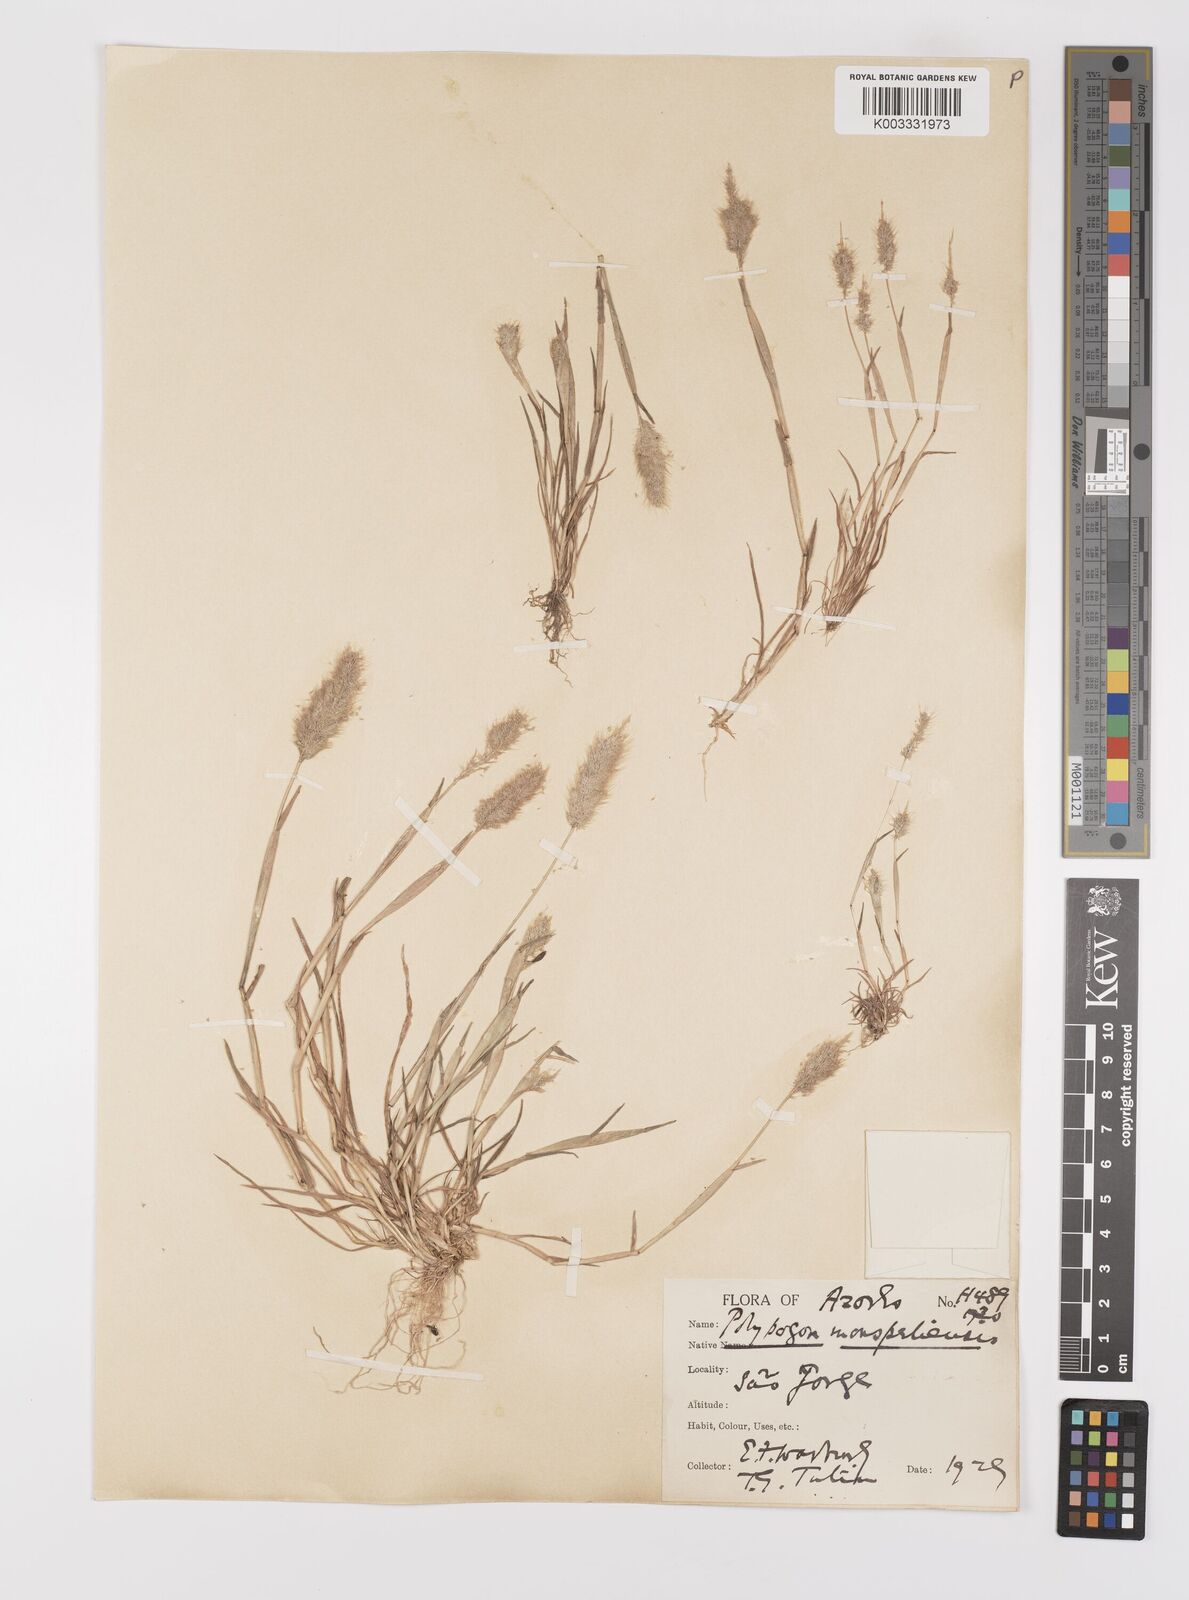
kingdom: Plantae
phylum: Tracheophyta
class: Liliopsida
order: Poales
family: Poaceae
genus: Polypogon
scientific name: Polypogon maritimus
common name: Mediterranean rabbitsfoot grass
